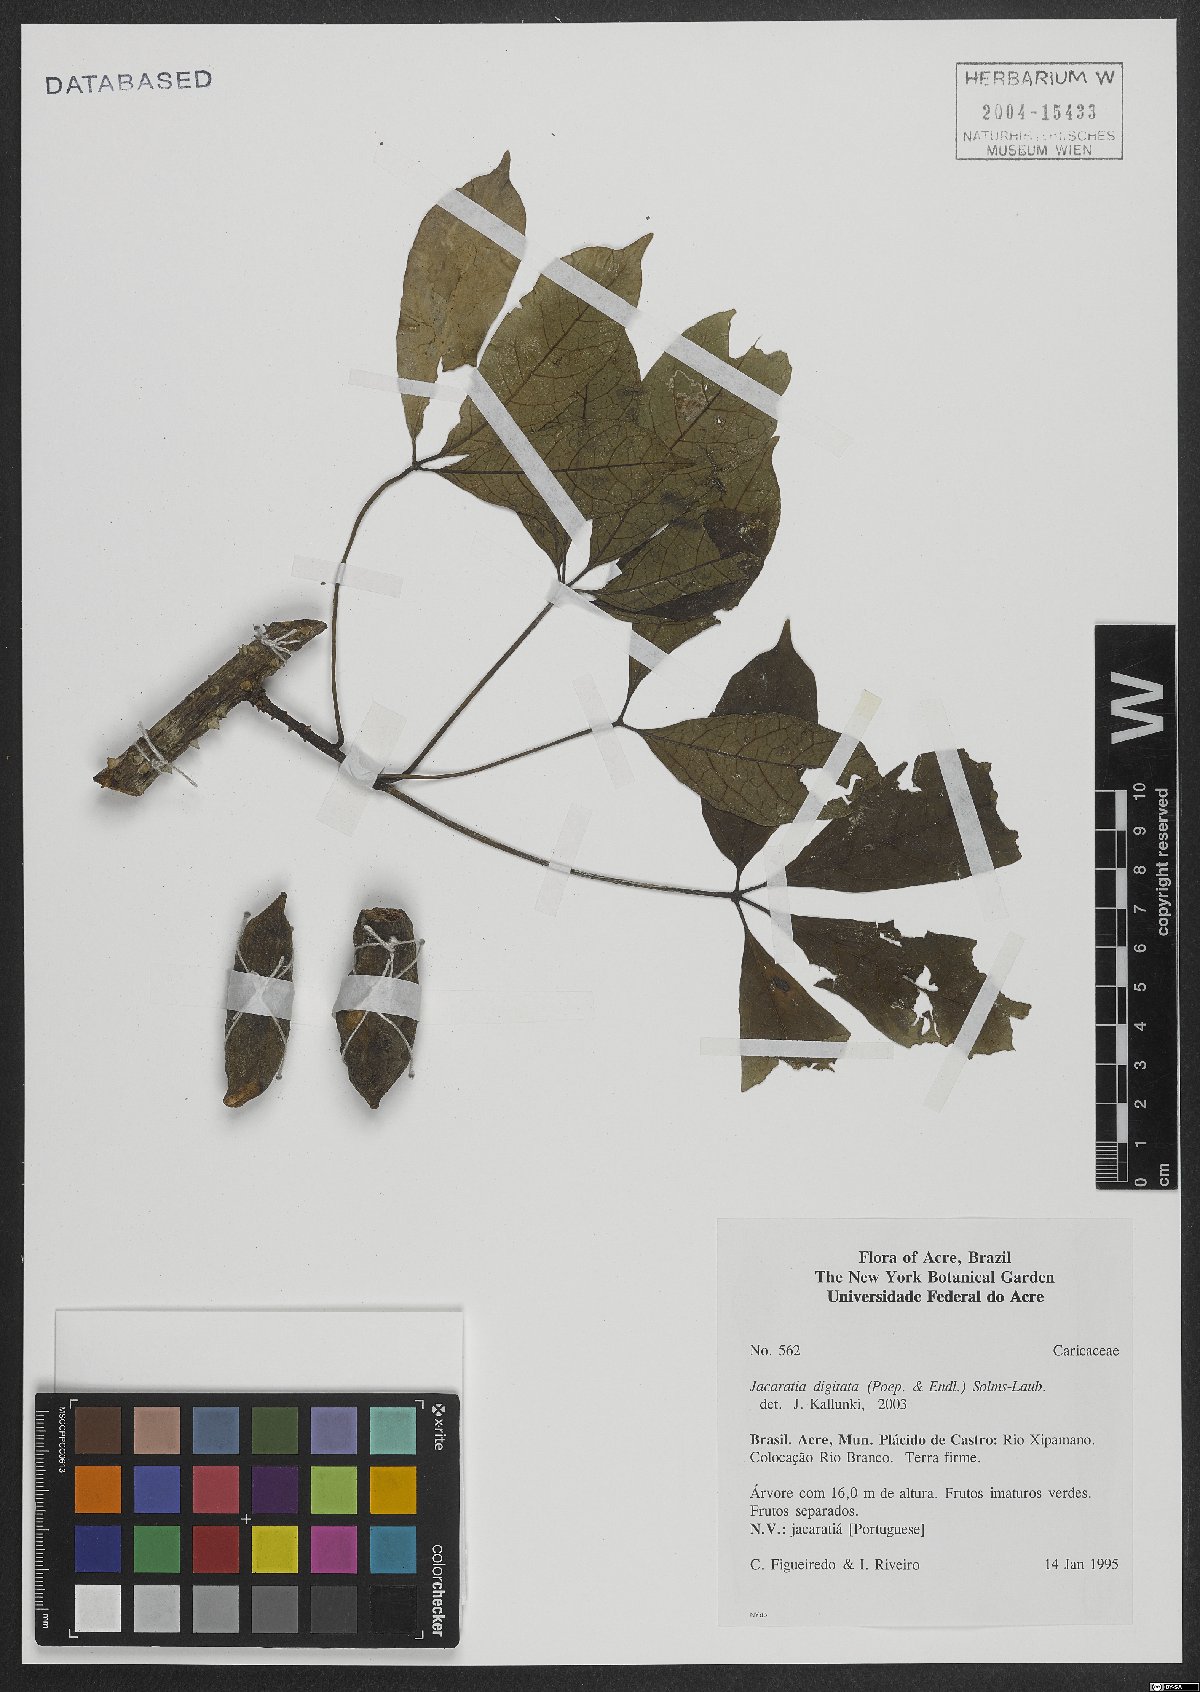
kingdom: Plantae
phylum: Tracheophyta
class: Magnoliopsida
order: Brassicales
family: Caricaceae
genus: Jacaratia
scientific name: Jacaratia digitata
